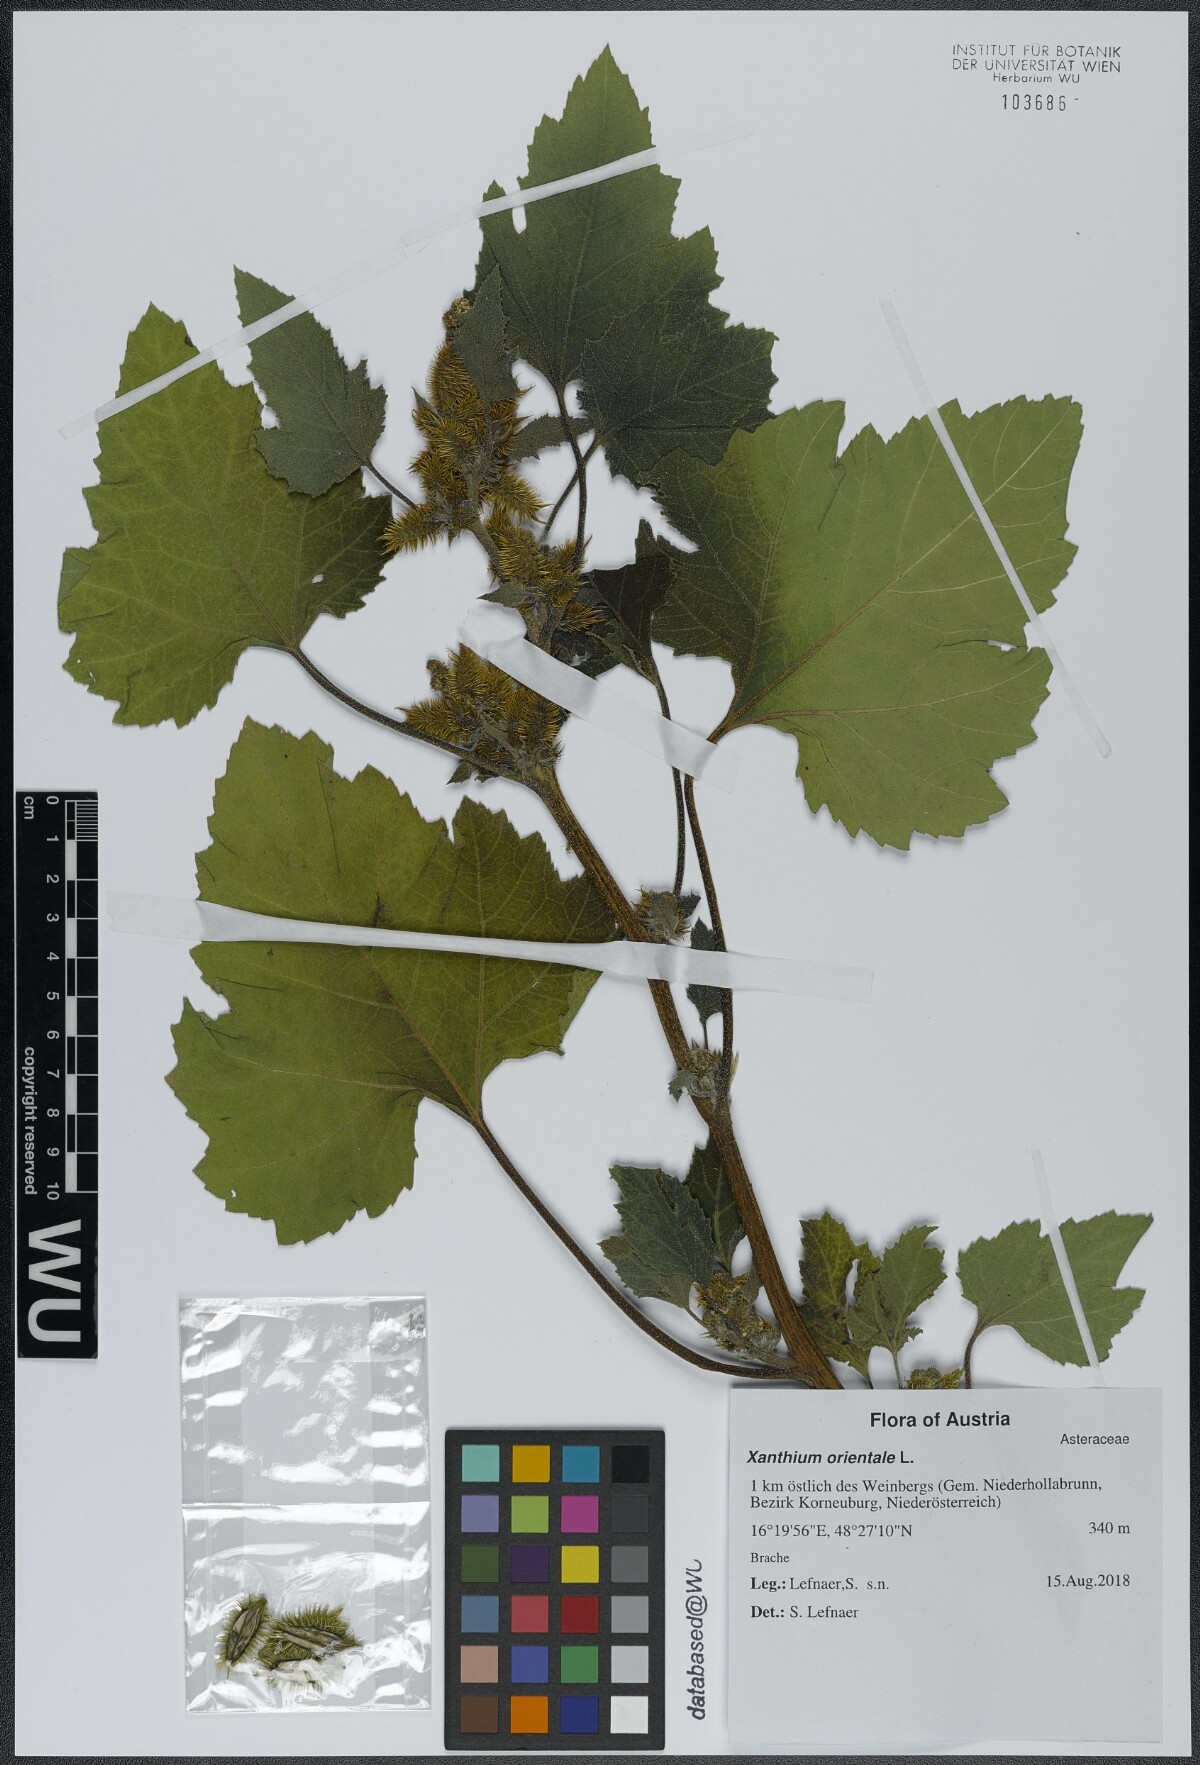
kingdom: Plantae
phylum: Tracheophyta
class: Magnoliopsida
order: Asterales
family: Asteraceae
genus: Xanthium
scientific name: Xanthium orientale
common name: Californian burr
